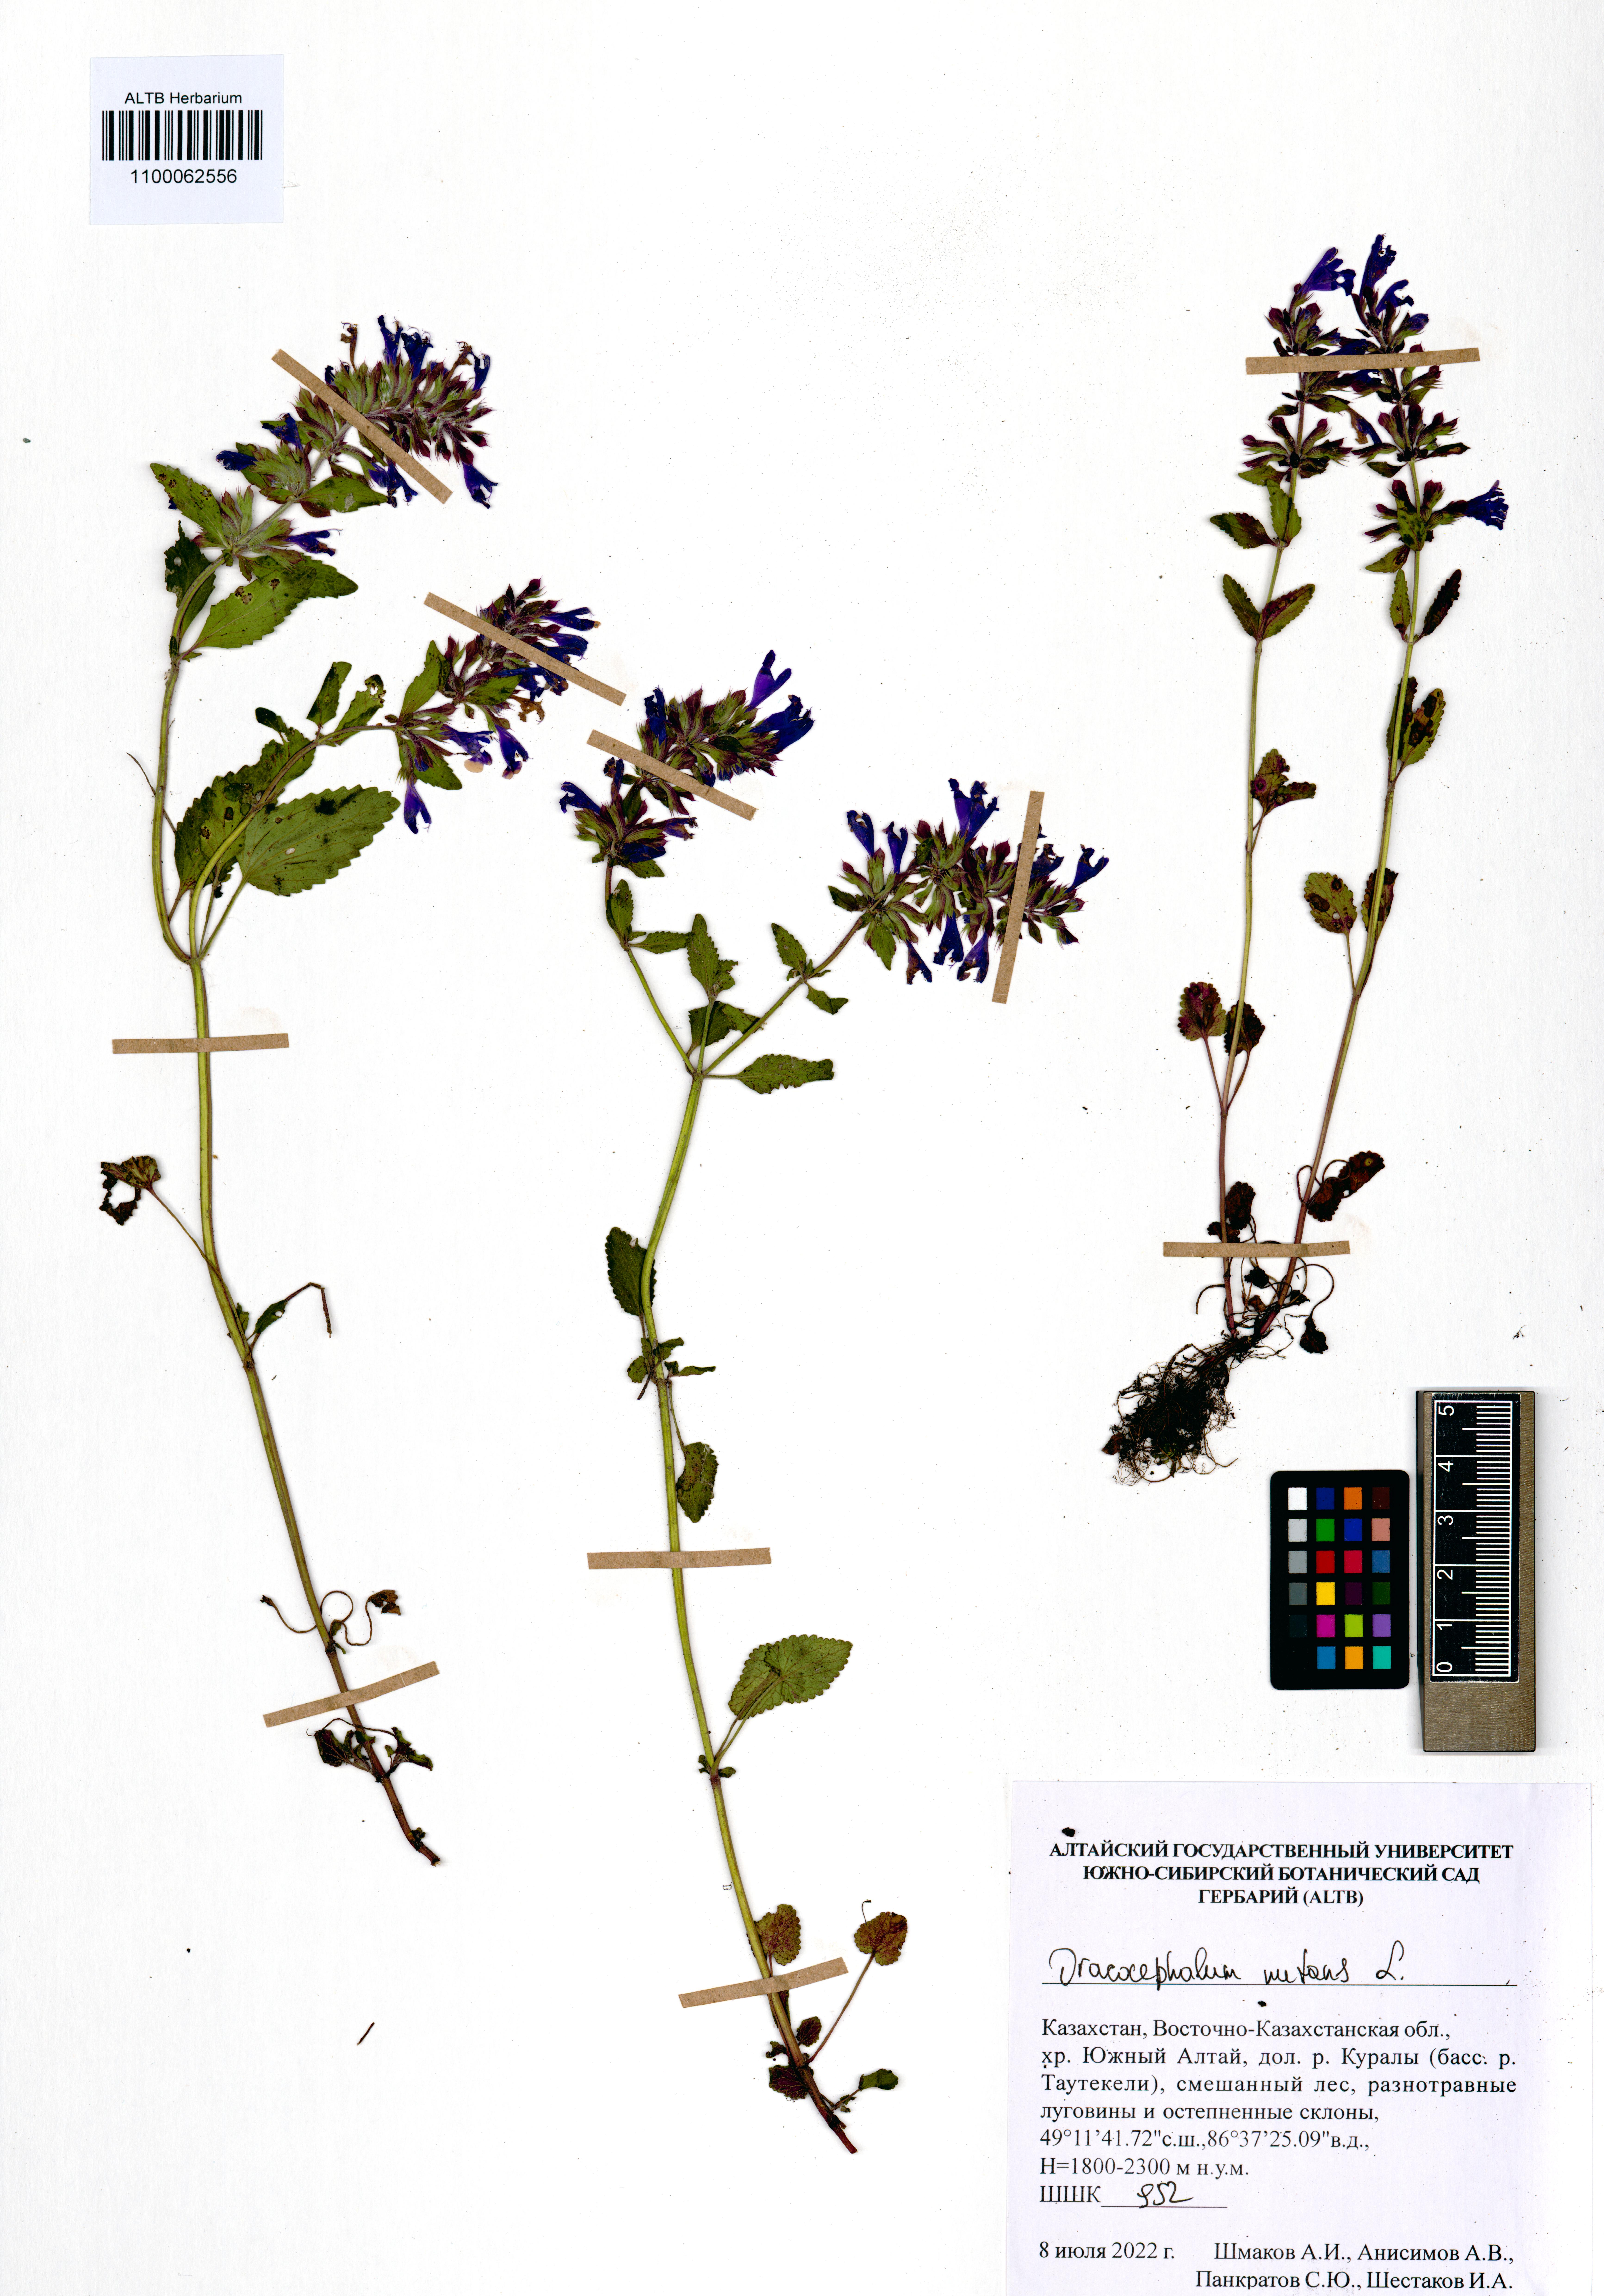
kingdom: Plantae
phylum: Tracheophyta
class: Magnoliopsida
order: Lamiales
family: Lamiaceae
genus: Dracocephalum
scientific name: Dracocephalum nutans
